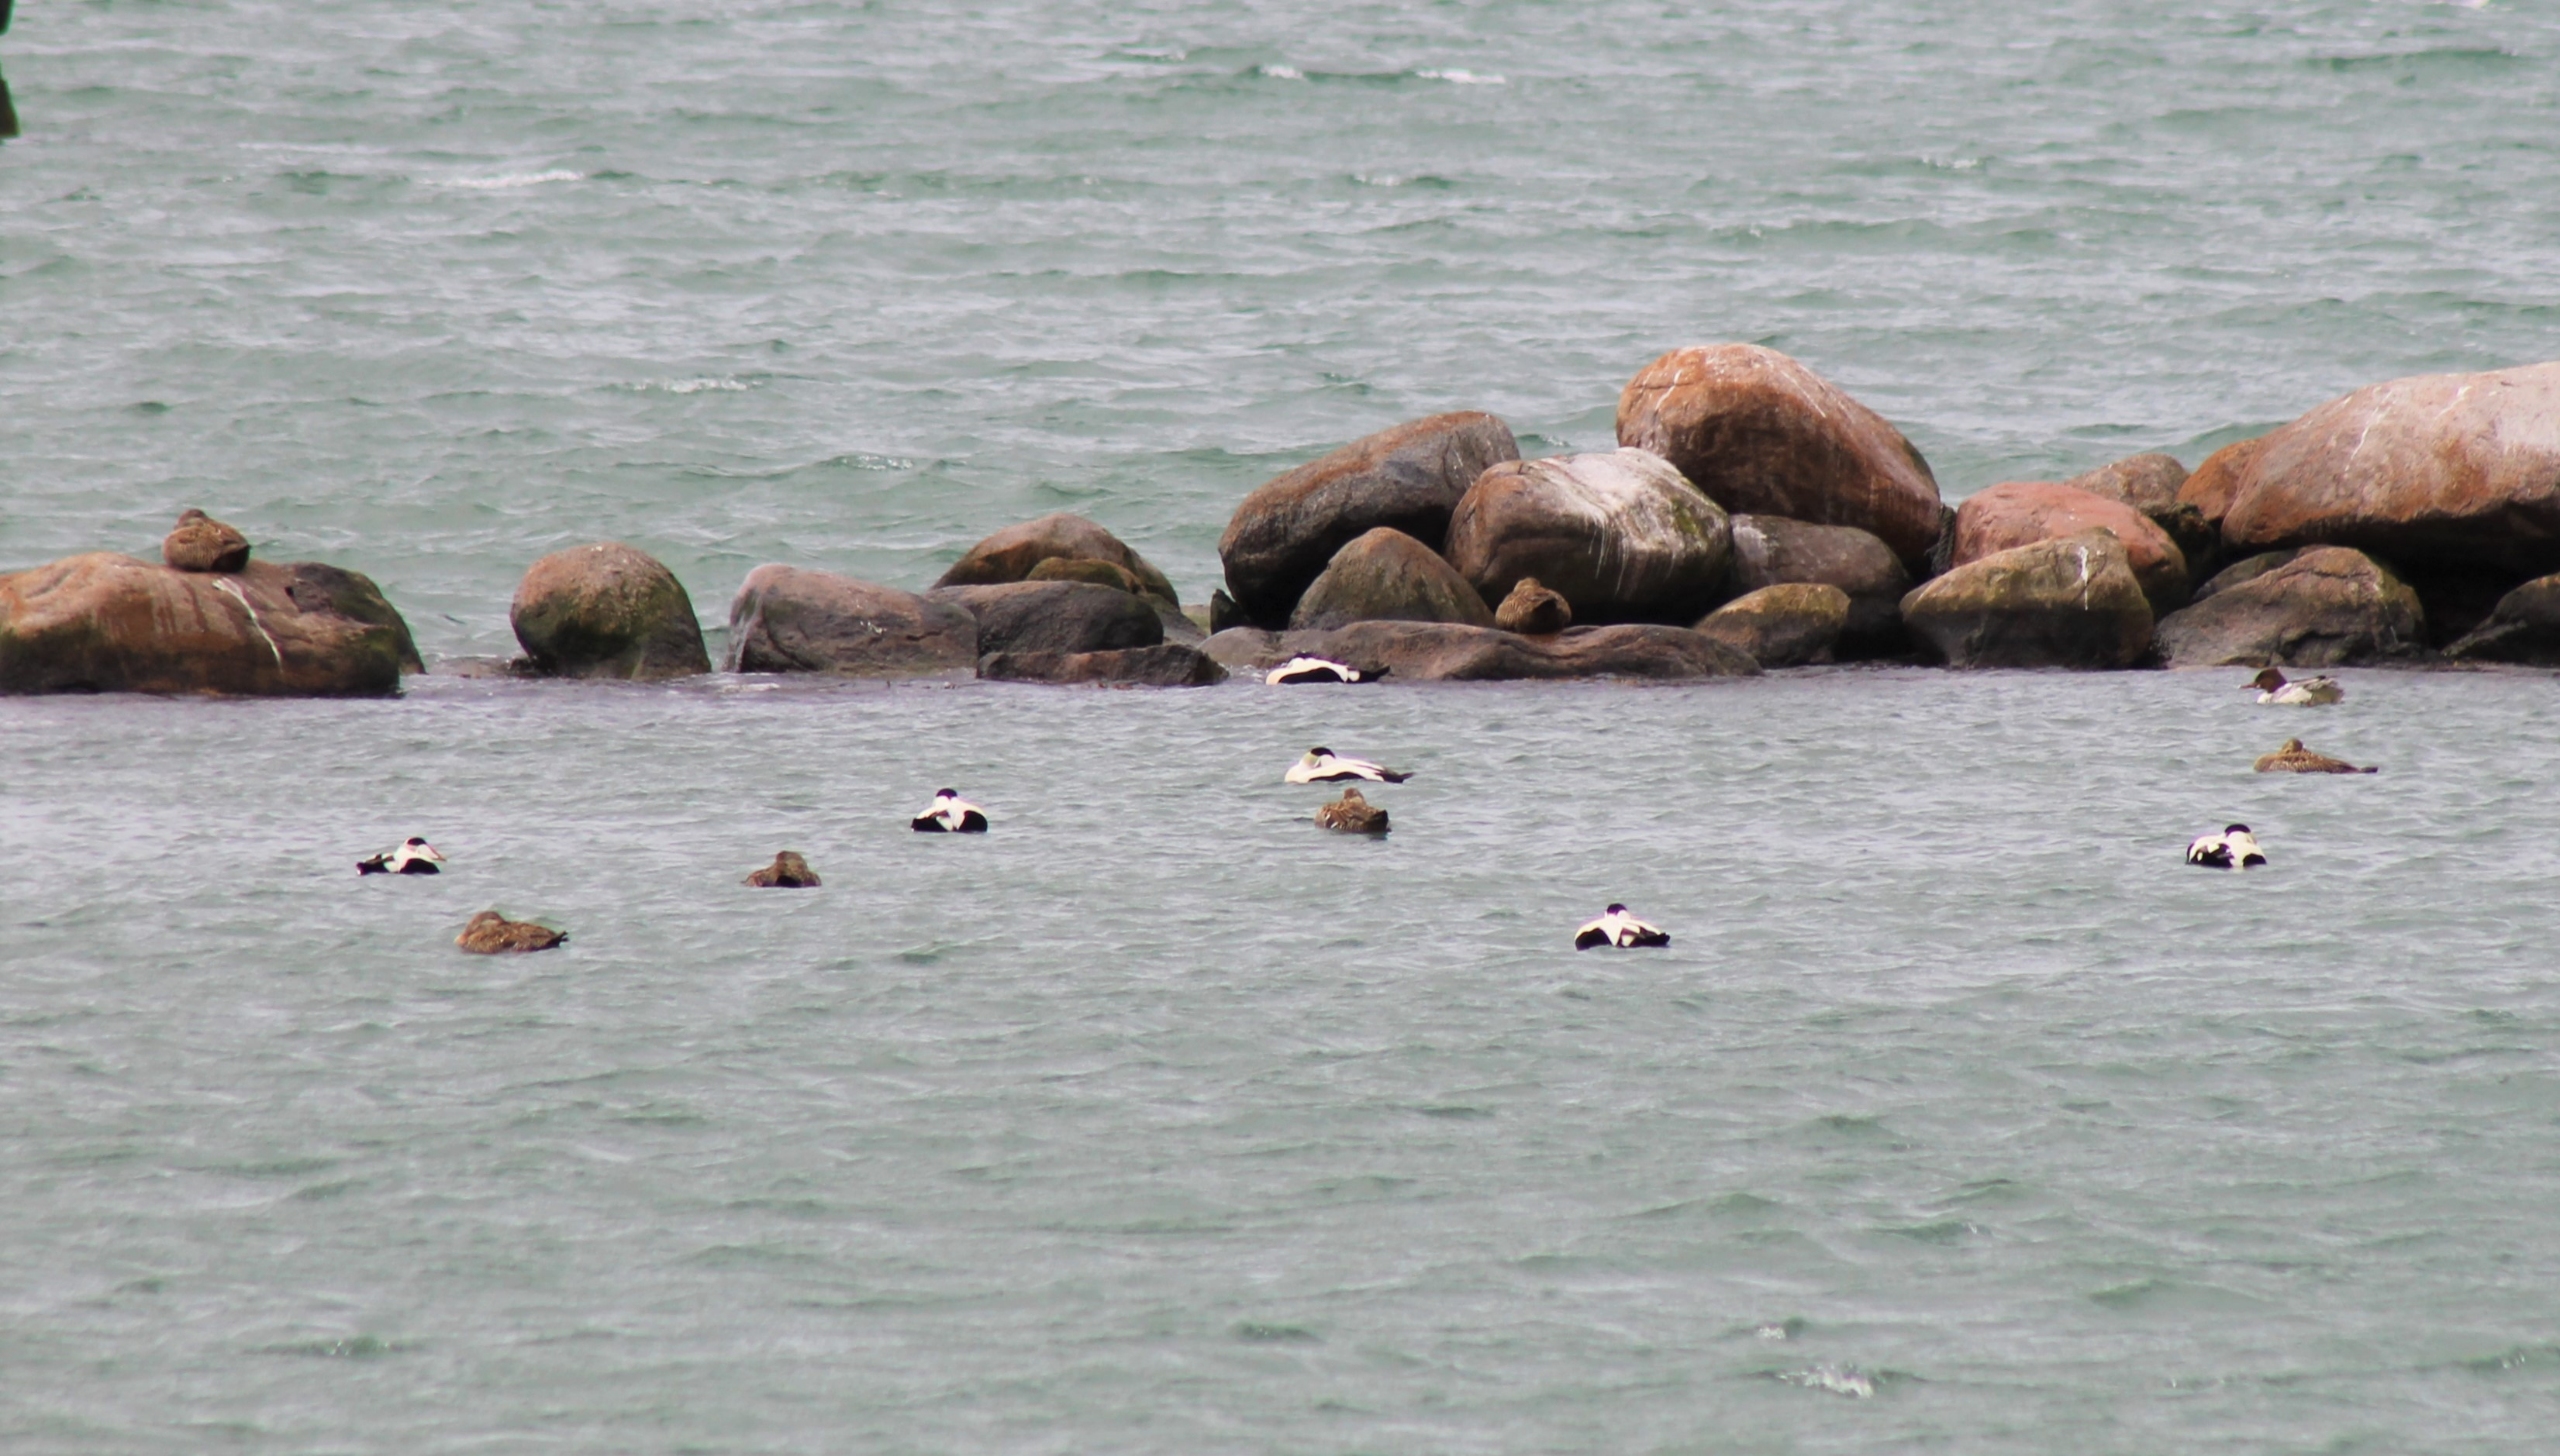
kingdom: Animalia
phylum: Chordata
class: Aves
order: Anseriformes
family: Anatidae
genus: Somateria
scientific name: Somateria mollissima
